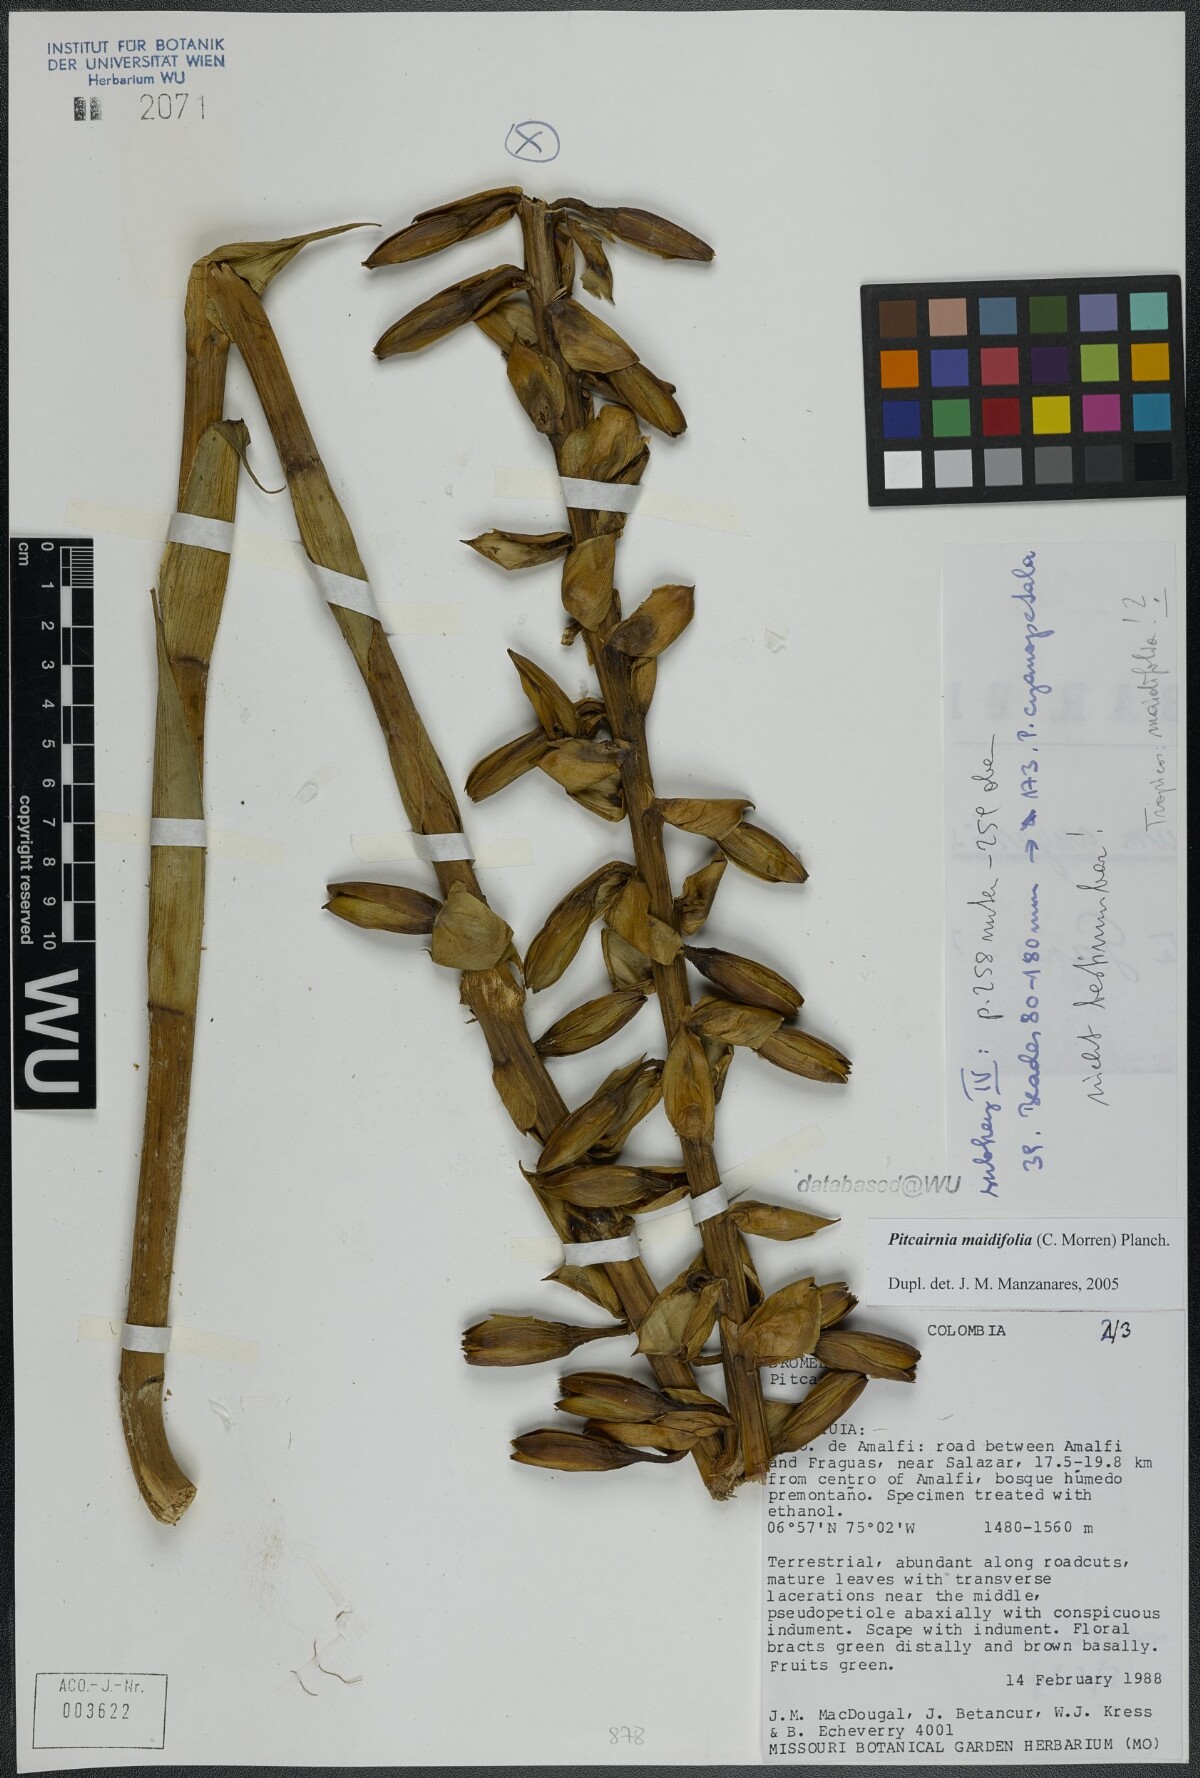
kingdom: Plantae
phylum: Tracheophyta
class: Liliopsida
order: Poales
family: Bromeliaceae
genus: Pitcairnia
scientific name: Pitcairnia maidifolia
